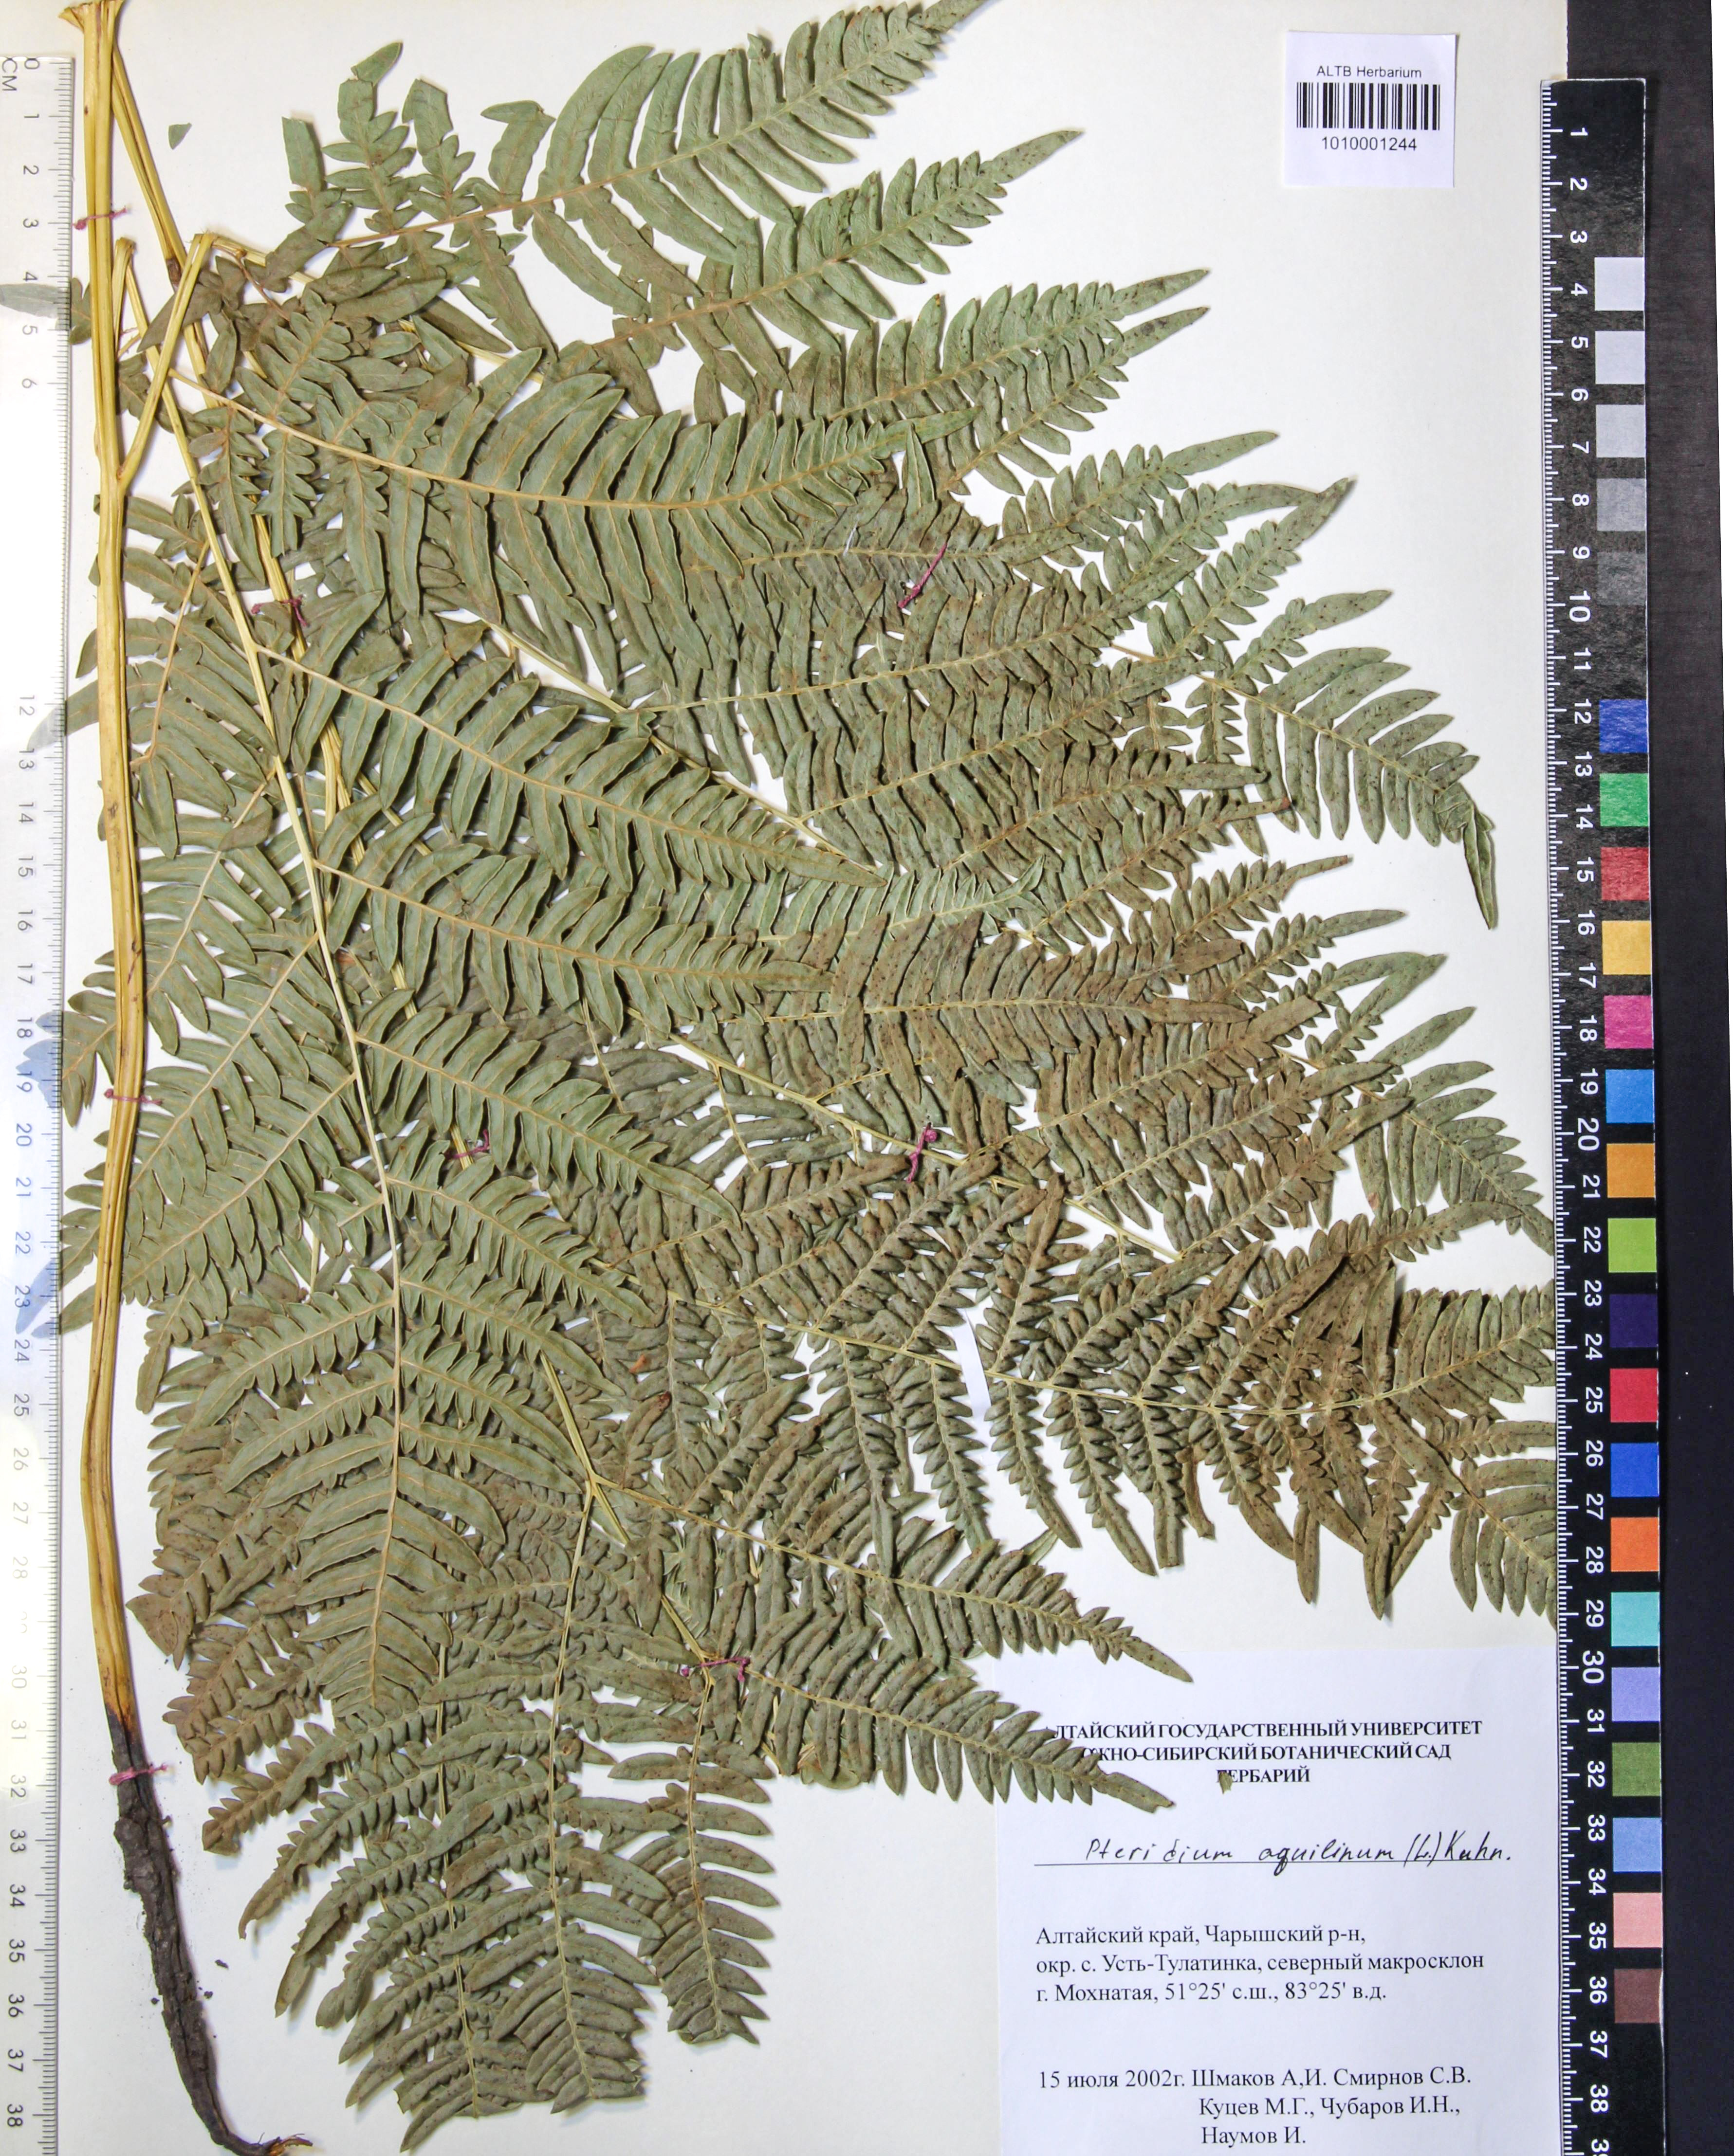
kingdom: Plantae
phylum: Tracheophyta
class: Polypodiopsida
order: Polypodiales
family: Dennstaedtiaceae
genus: Pteridium
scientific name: Pteridium aquilinum
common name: Bracken
